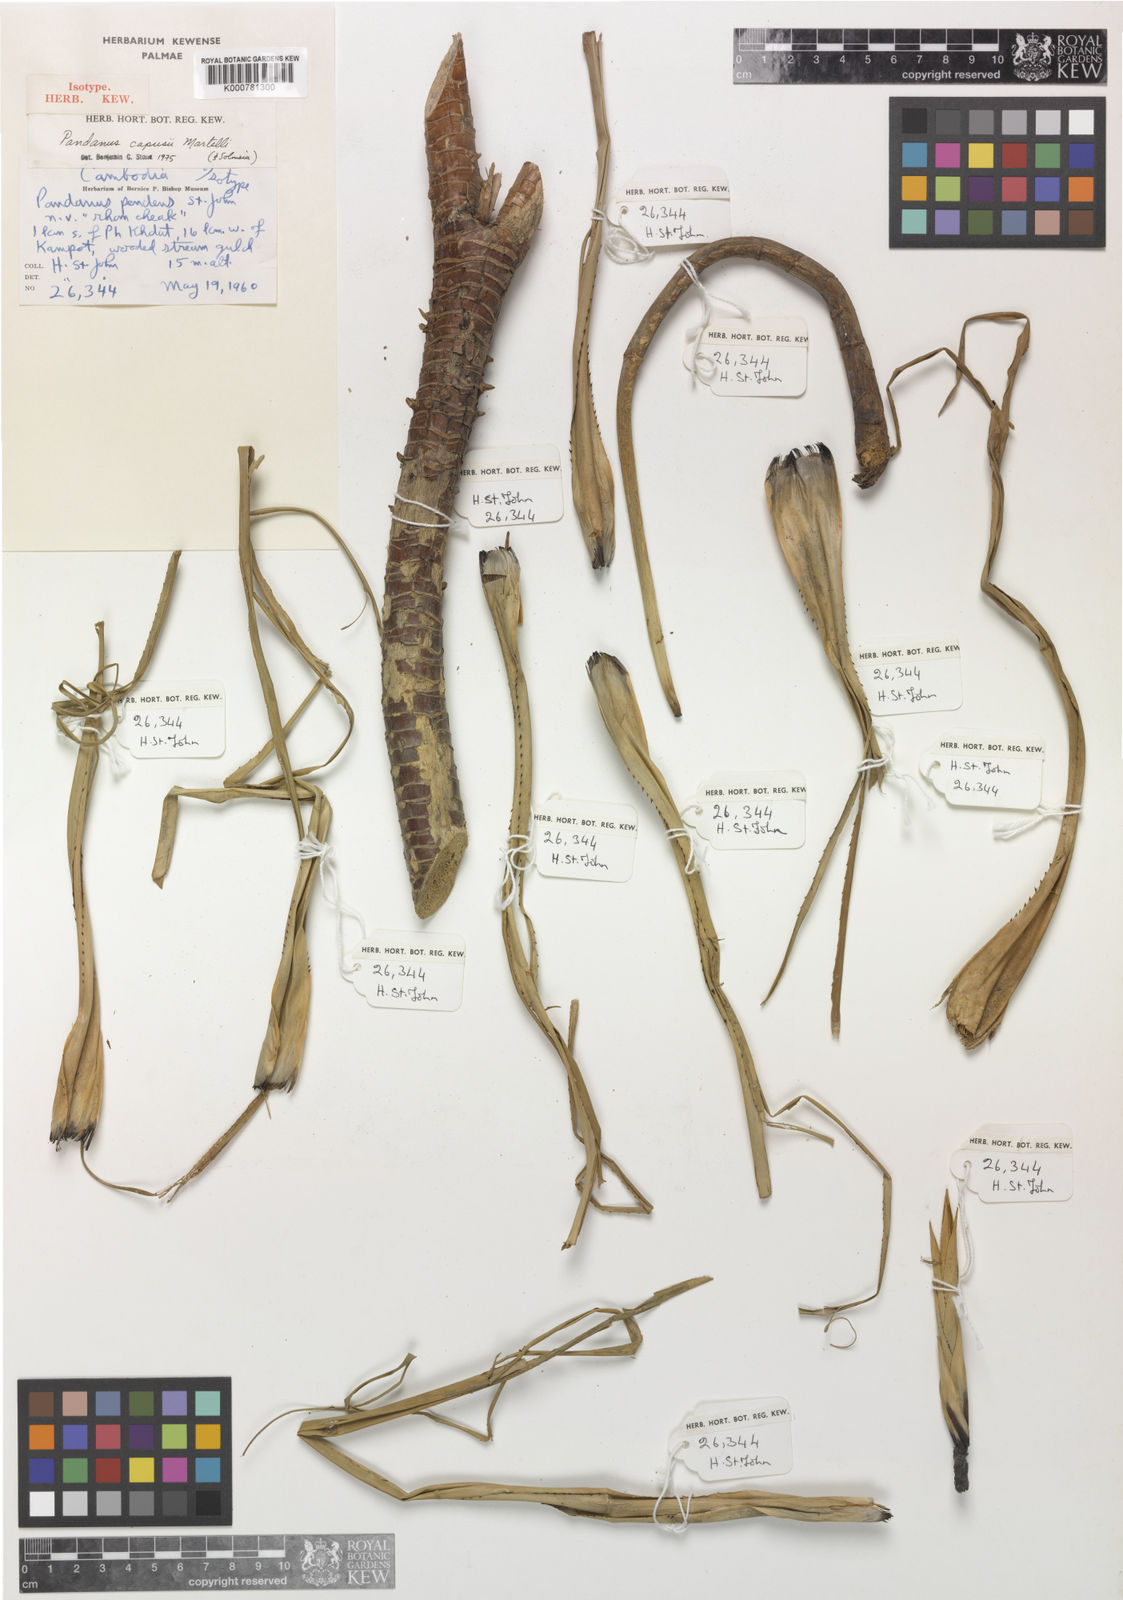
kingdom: Plantae
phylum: Tracheophyta
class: Liliopsida
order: Pandanales
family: Pandanaceae
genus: Pandanus
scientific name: Pandanus capusii
